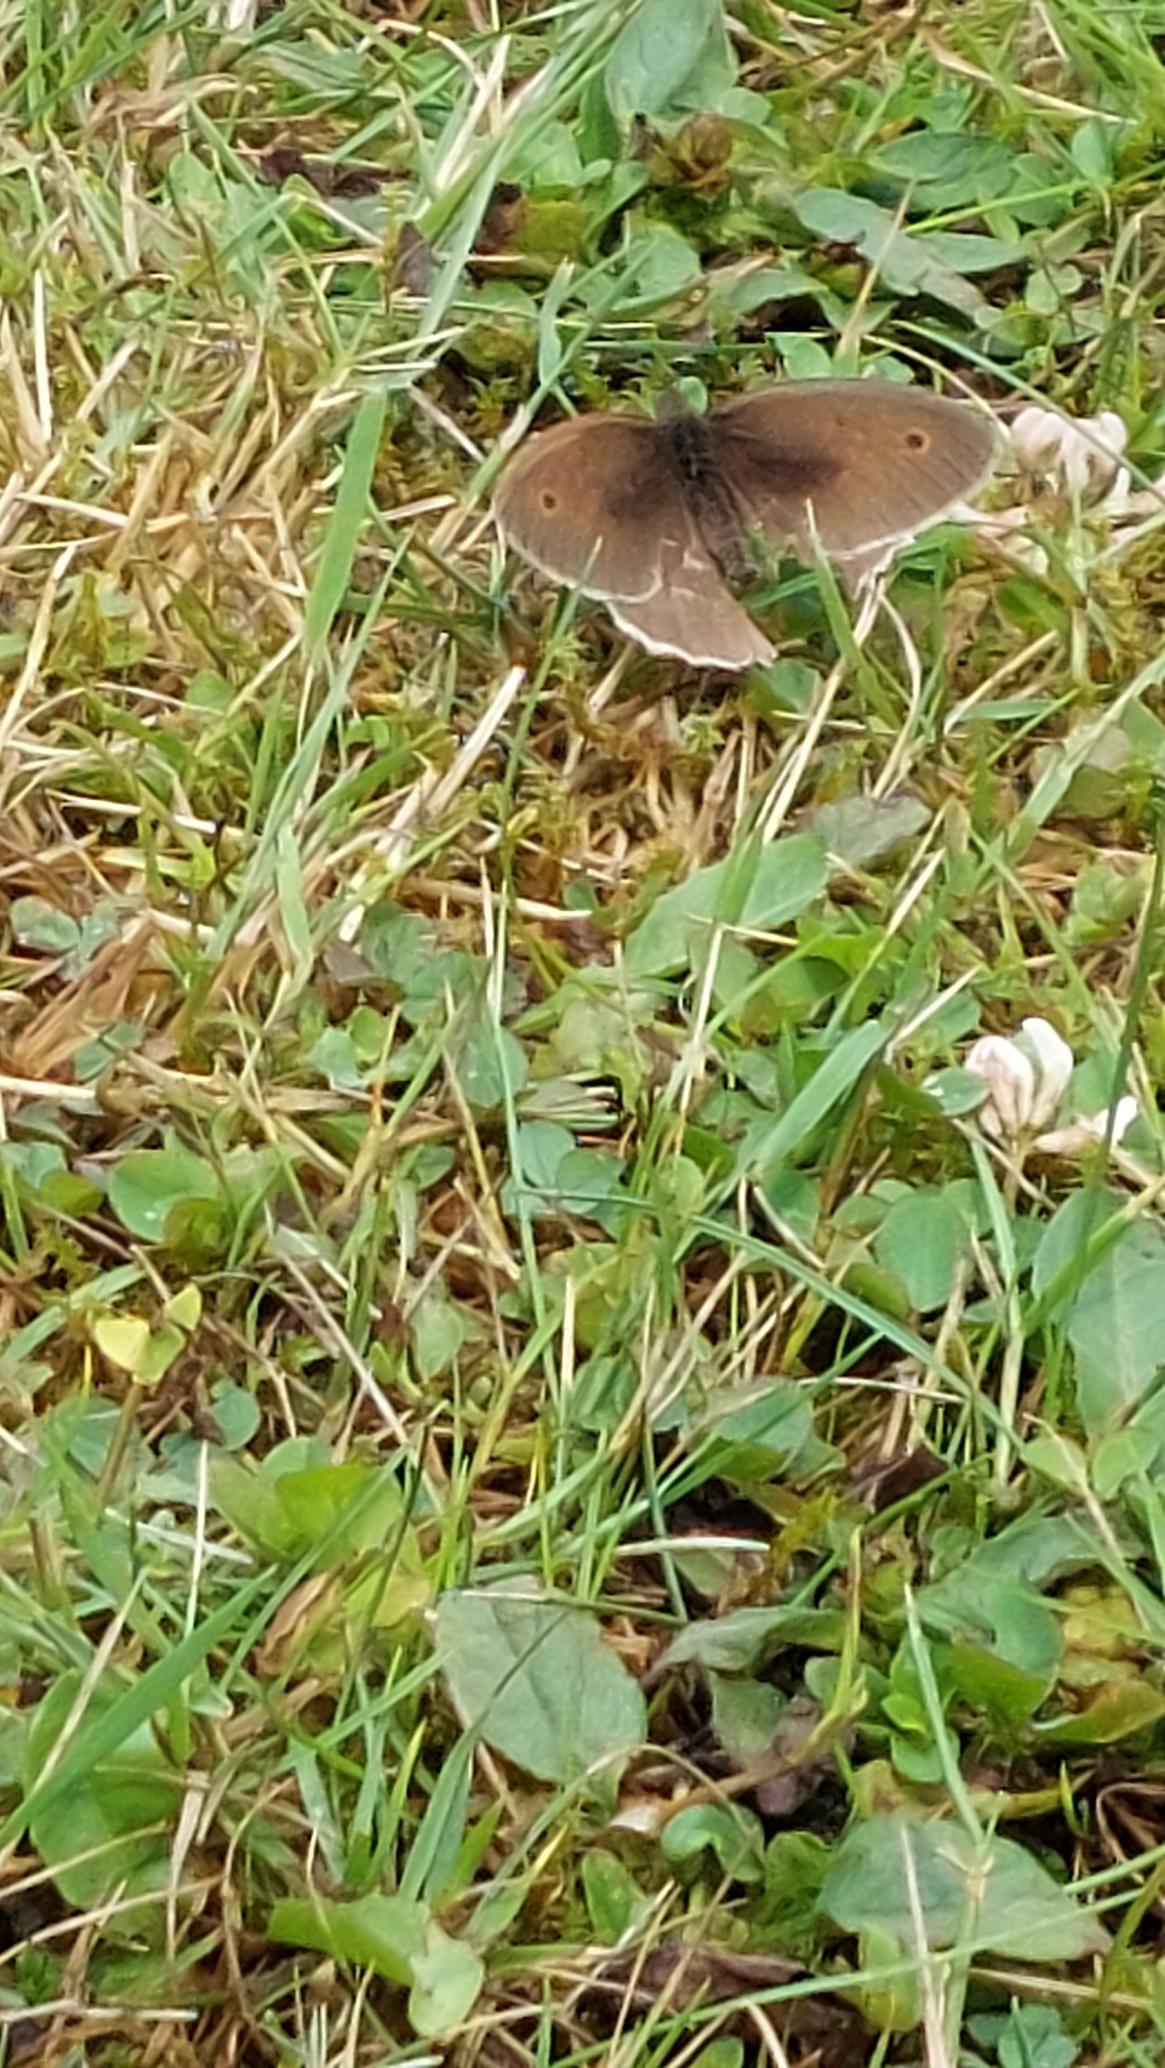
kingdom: Animalia
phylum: Arthropoda
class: Insecta
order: Lepidoptera
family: Nymphalidae
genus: Maniola
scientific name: Maniola jurtina
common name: Græsrandøje
